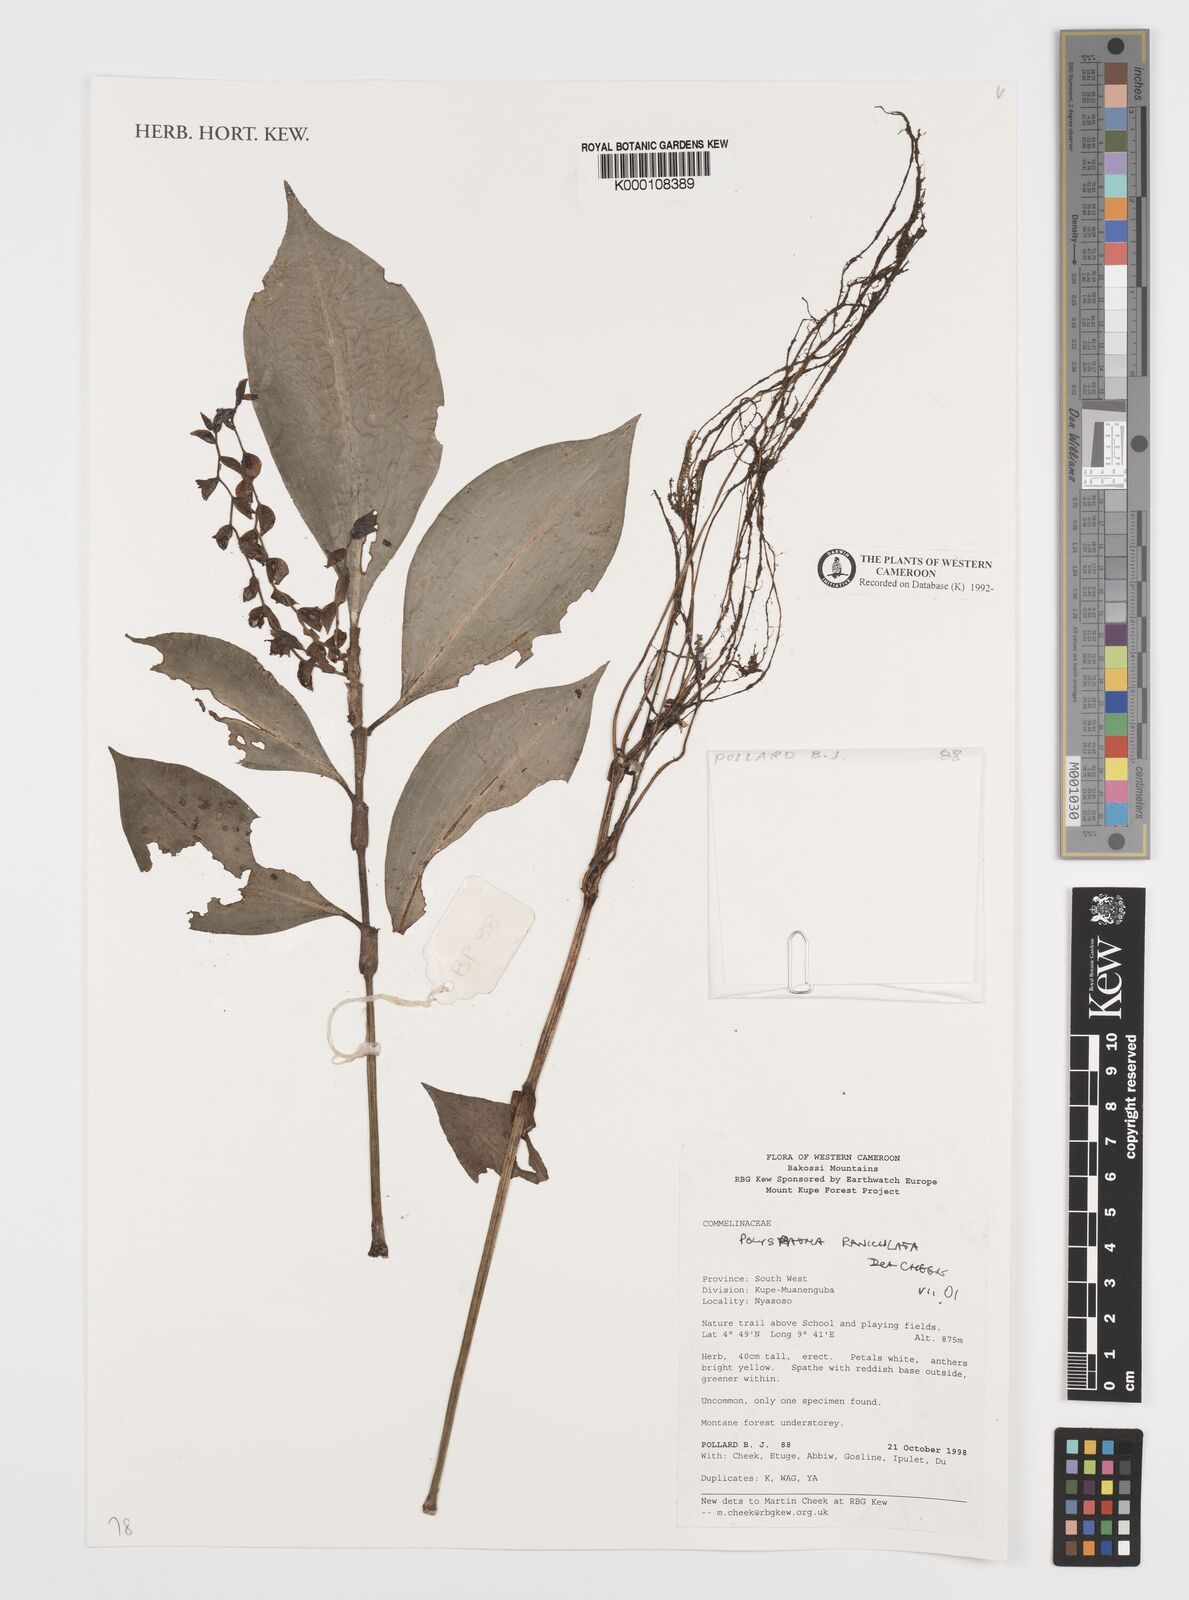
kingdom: Plantae
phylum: Tracheophyta
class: Liliopsida
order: Commelinales
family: Commelinaceae
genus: Polyspatha
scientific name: Polyspatha paniculata
